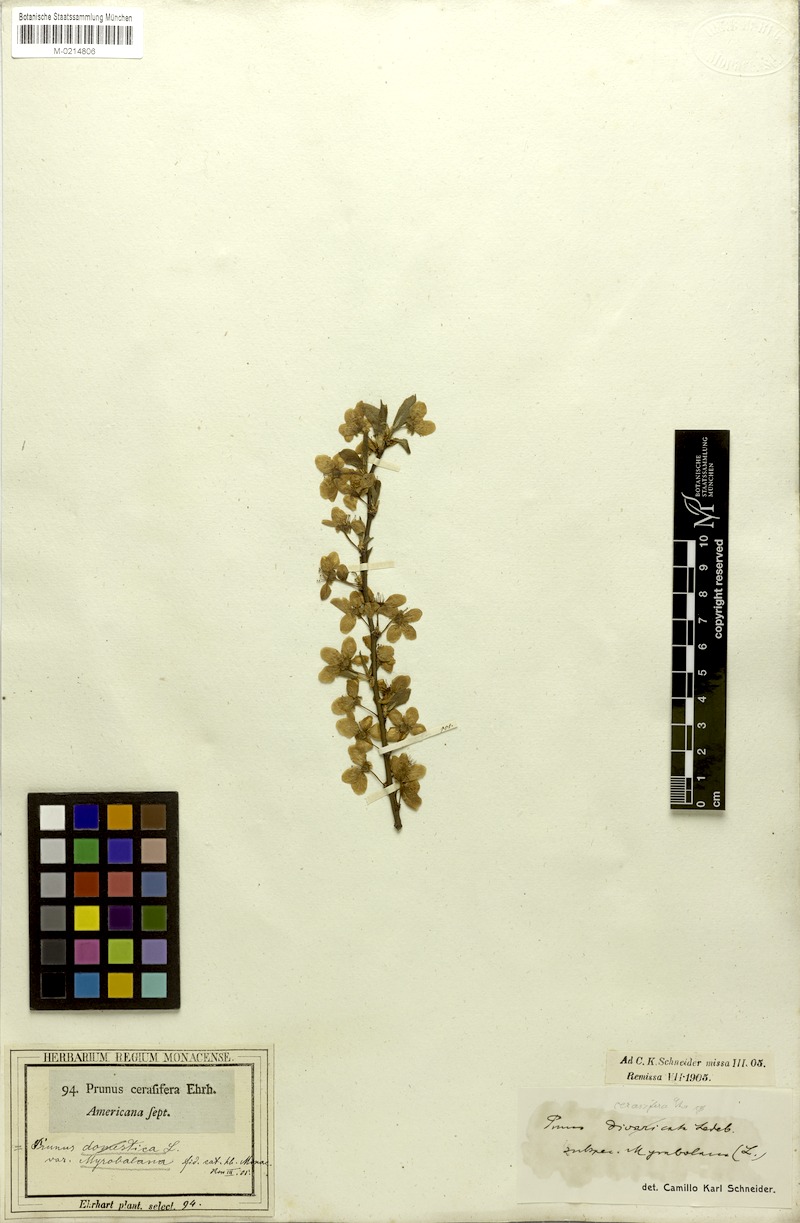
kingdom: Plantae
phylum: Tracheophyta
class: Magnoliopsida
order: Rosales
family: Rosaceae
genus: Prunus
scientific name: Prunus cerasifera
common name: Cherry plum
